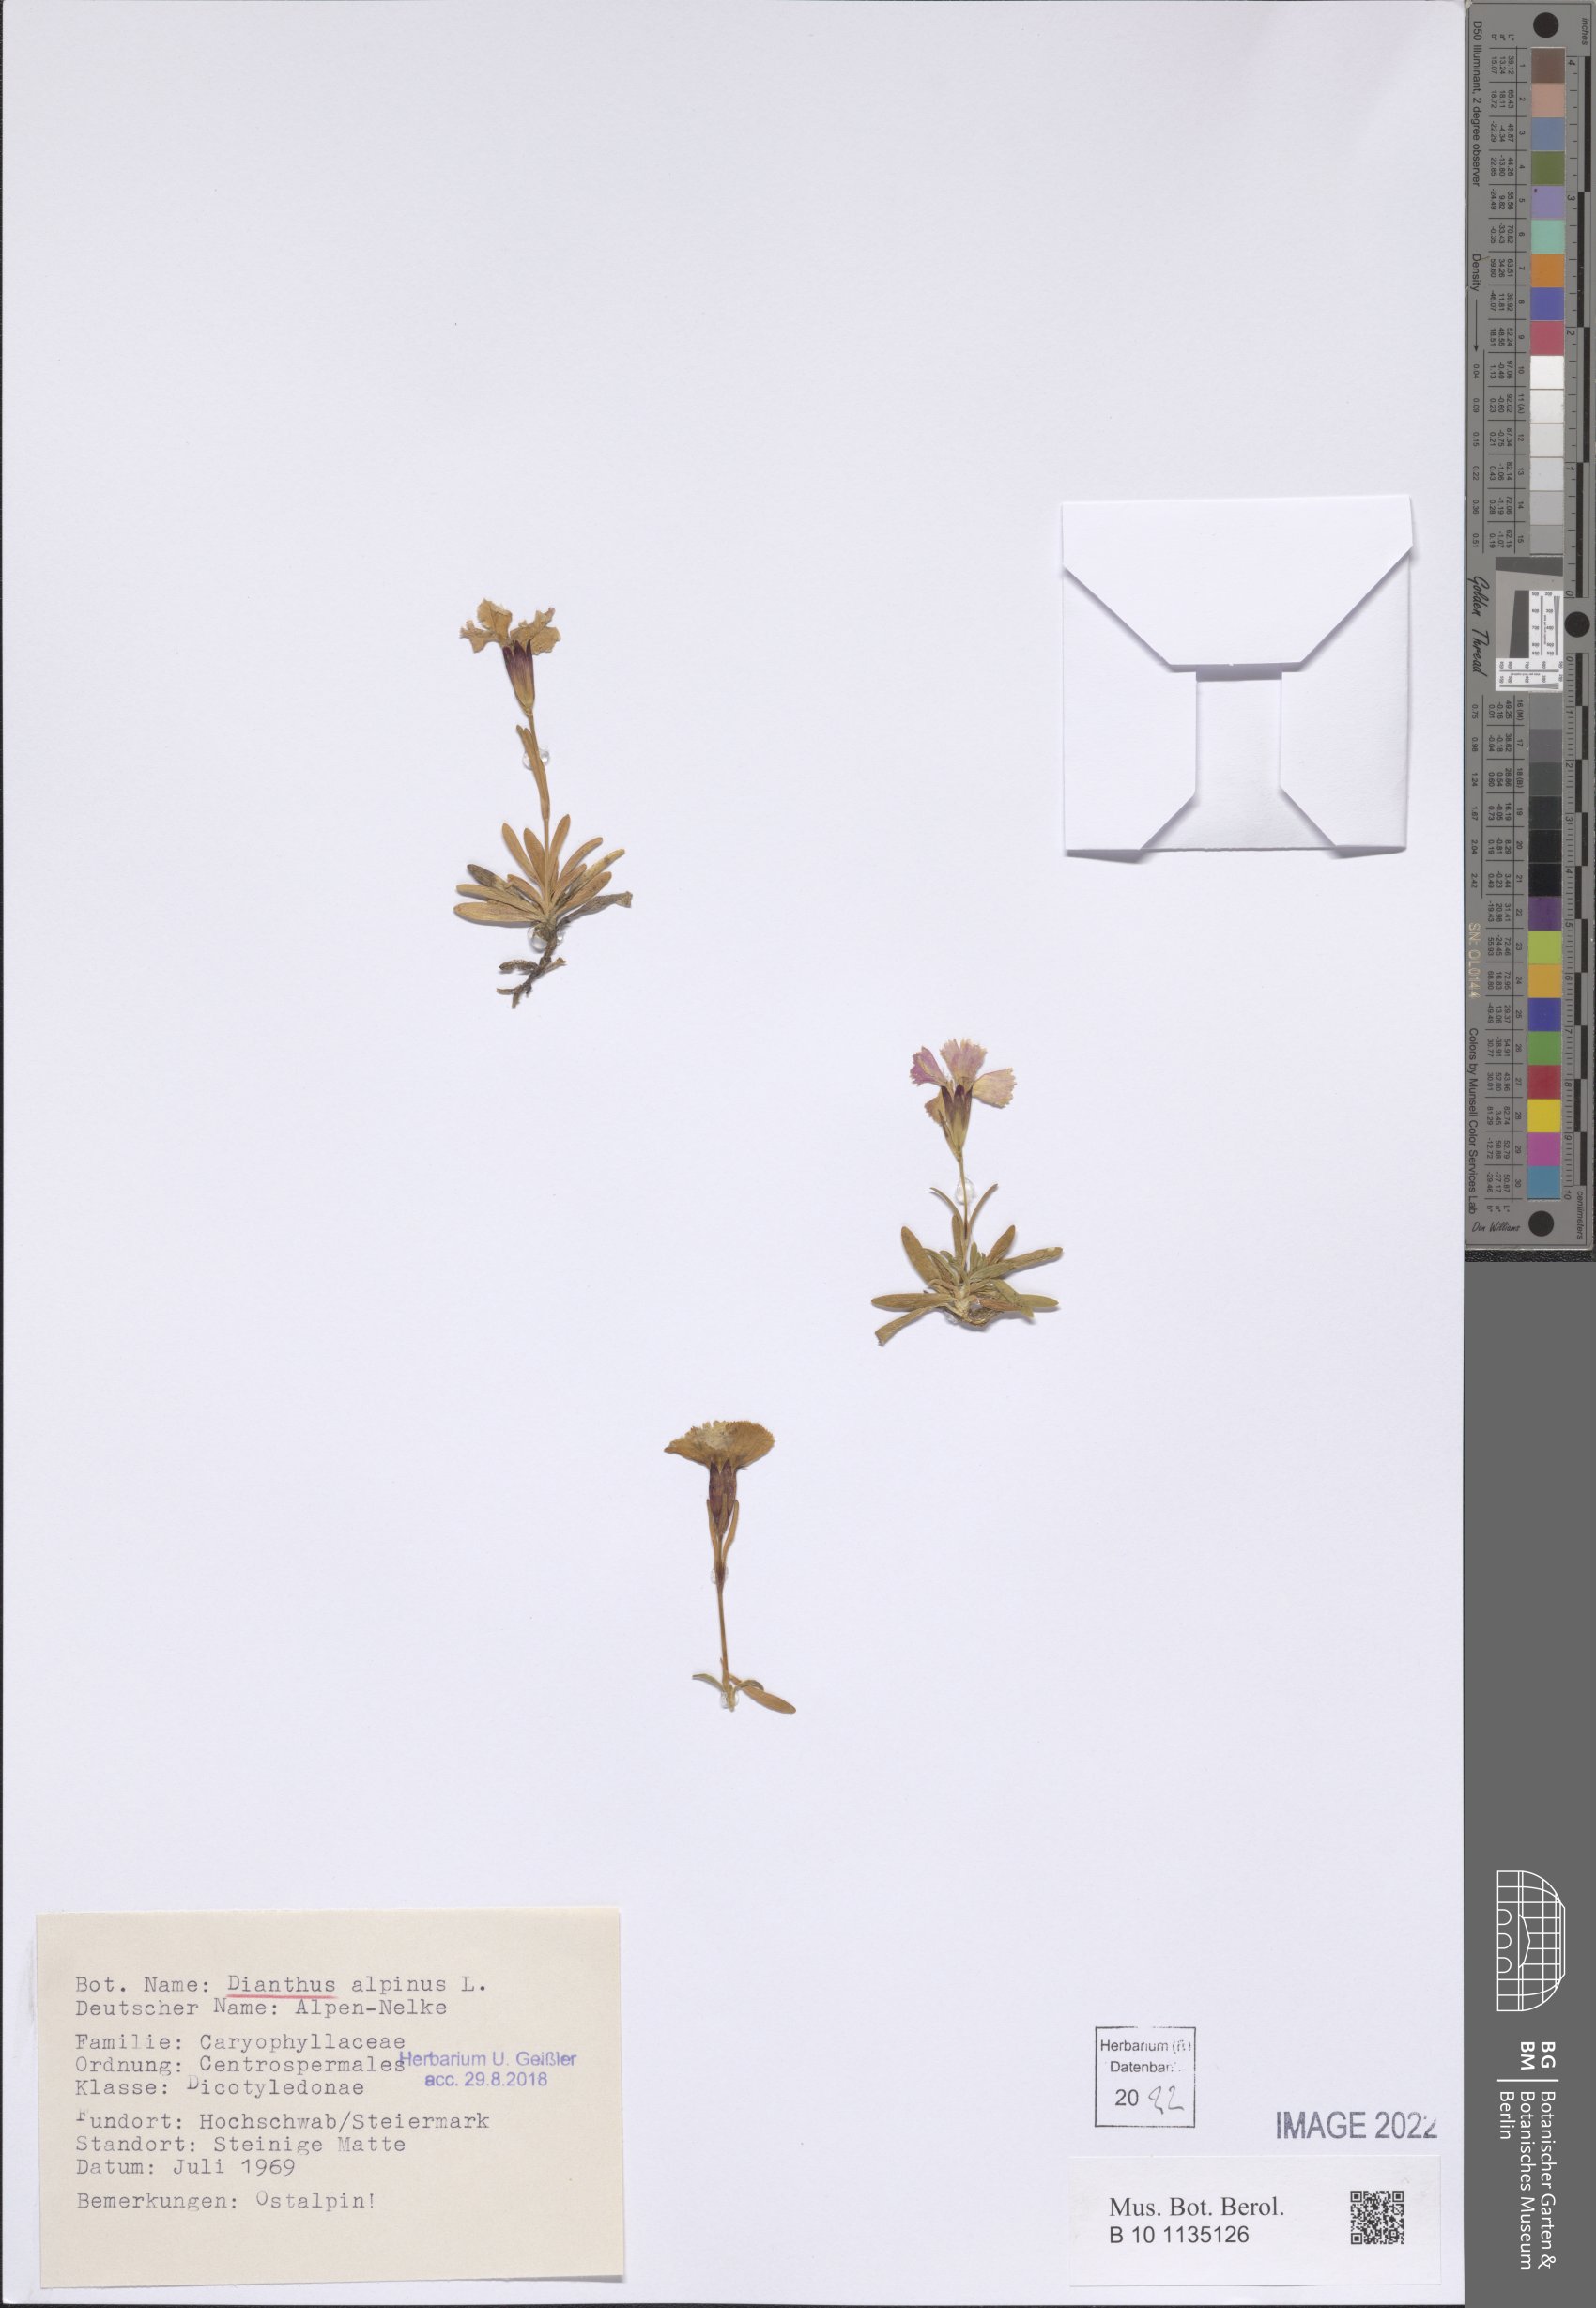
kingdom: Plantae
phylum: Tracheophyta
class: Magnoliopsida
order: Caryophyllales
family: Caryophyllaceae
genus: Dianthus
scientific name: Dianthus alpinus
